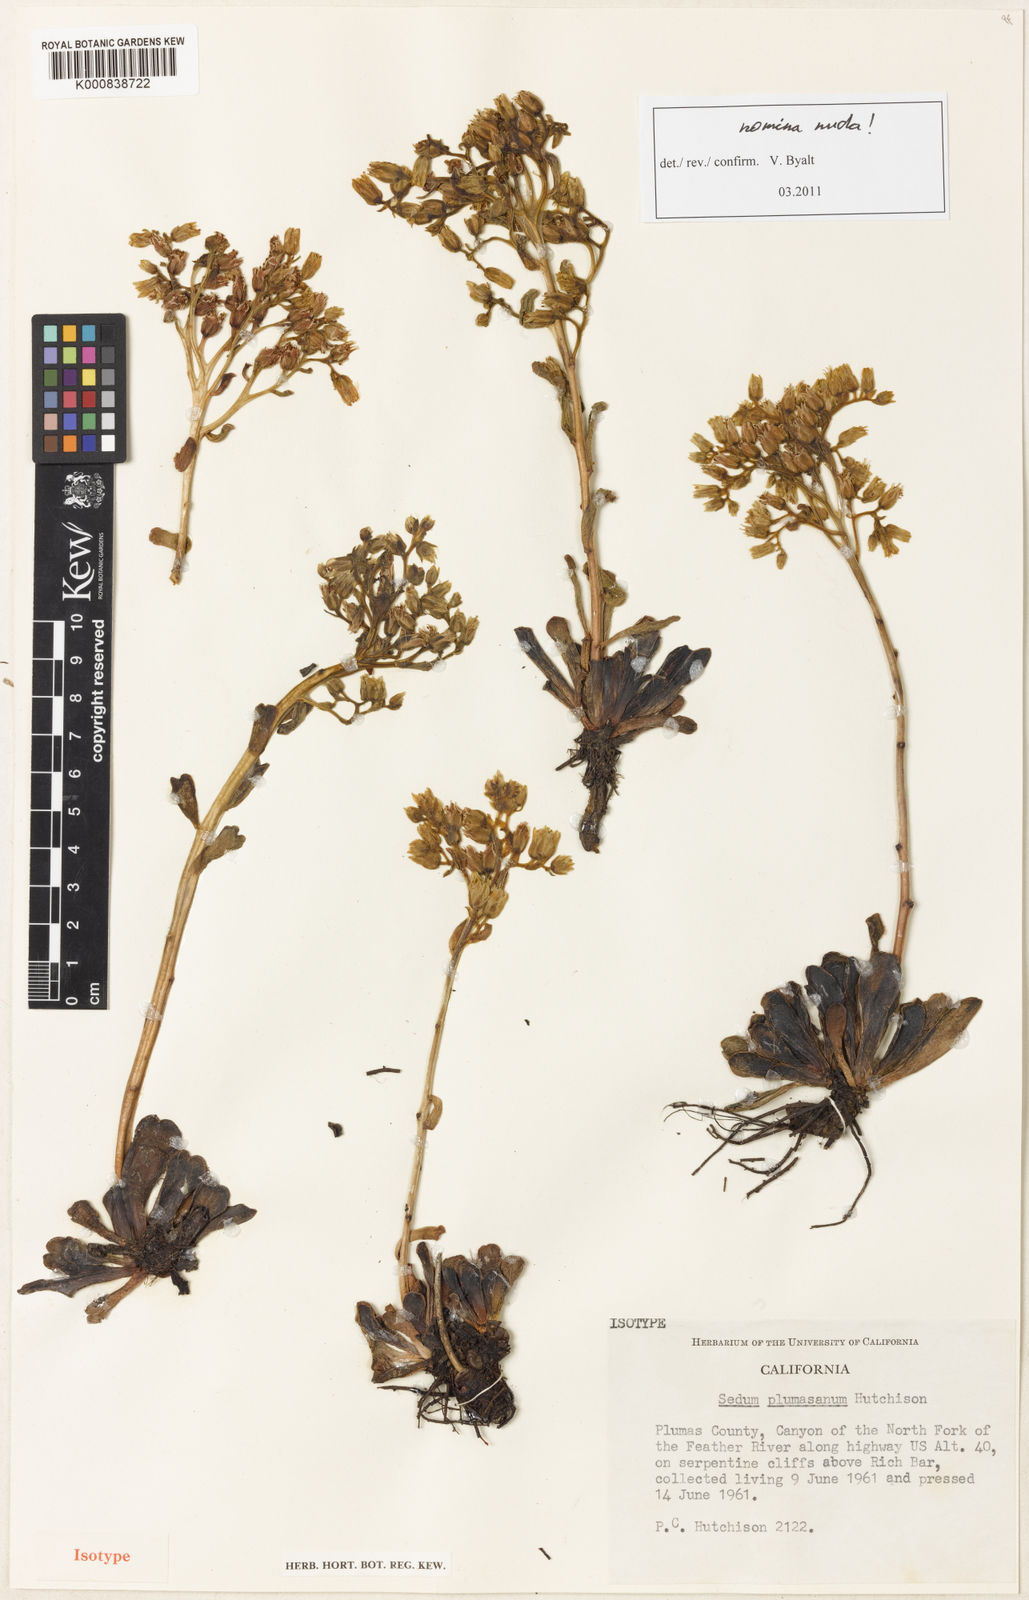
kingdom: Plantae
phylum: Tracheophyta
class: Magnoliopsida
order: Saxifragales
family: Crassulaceae
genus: Sedum
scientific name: Sedum
